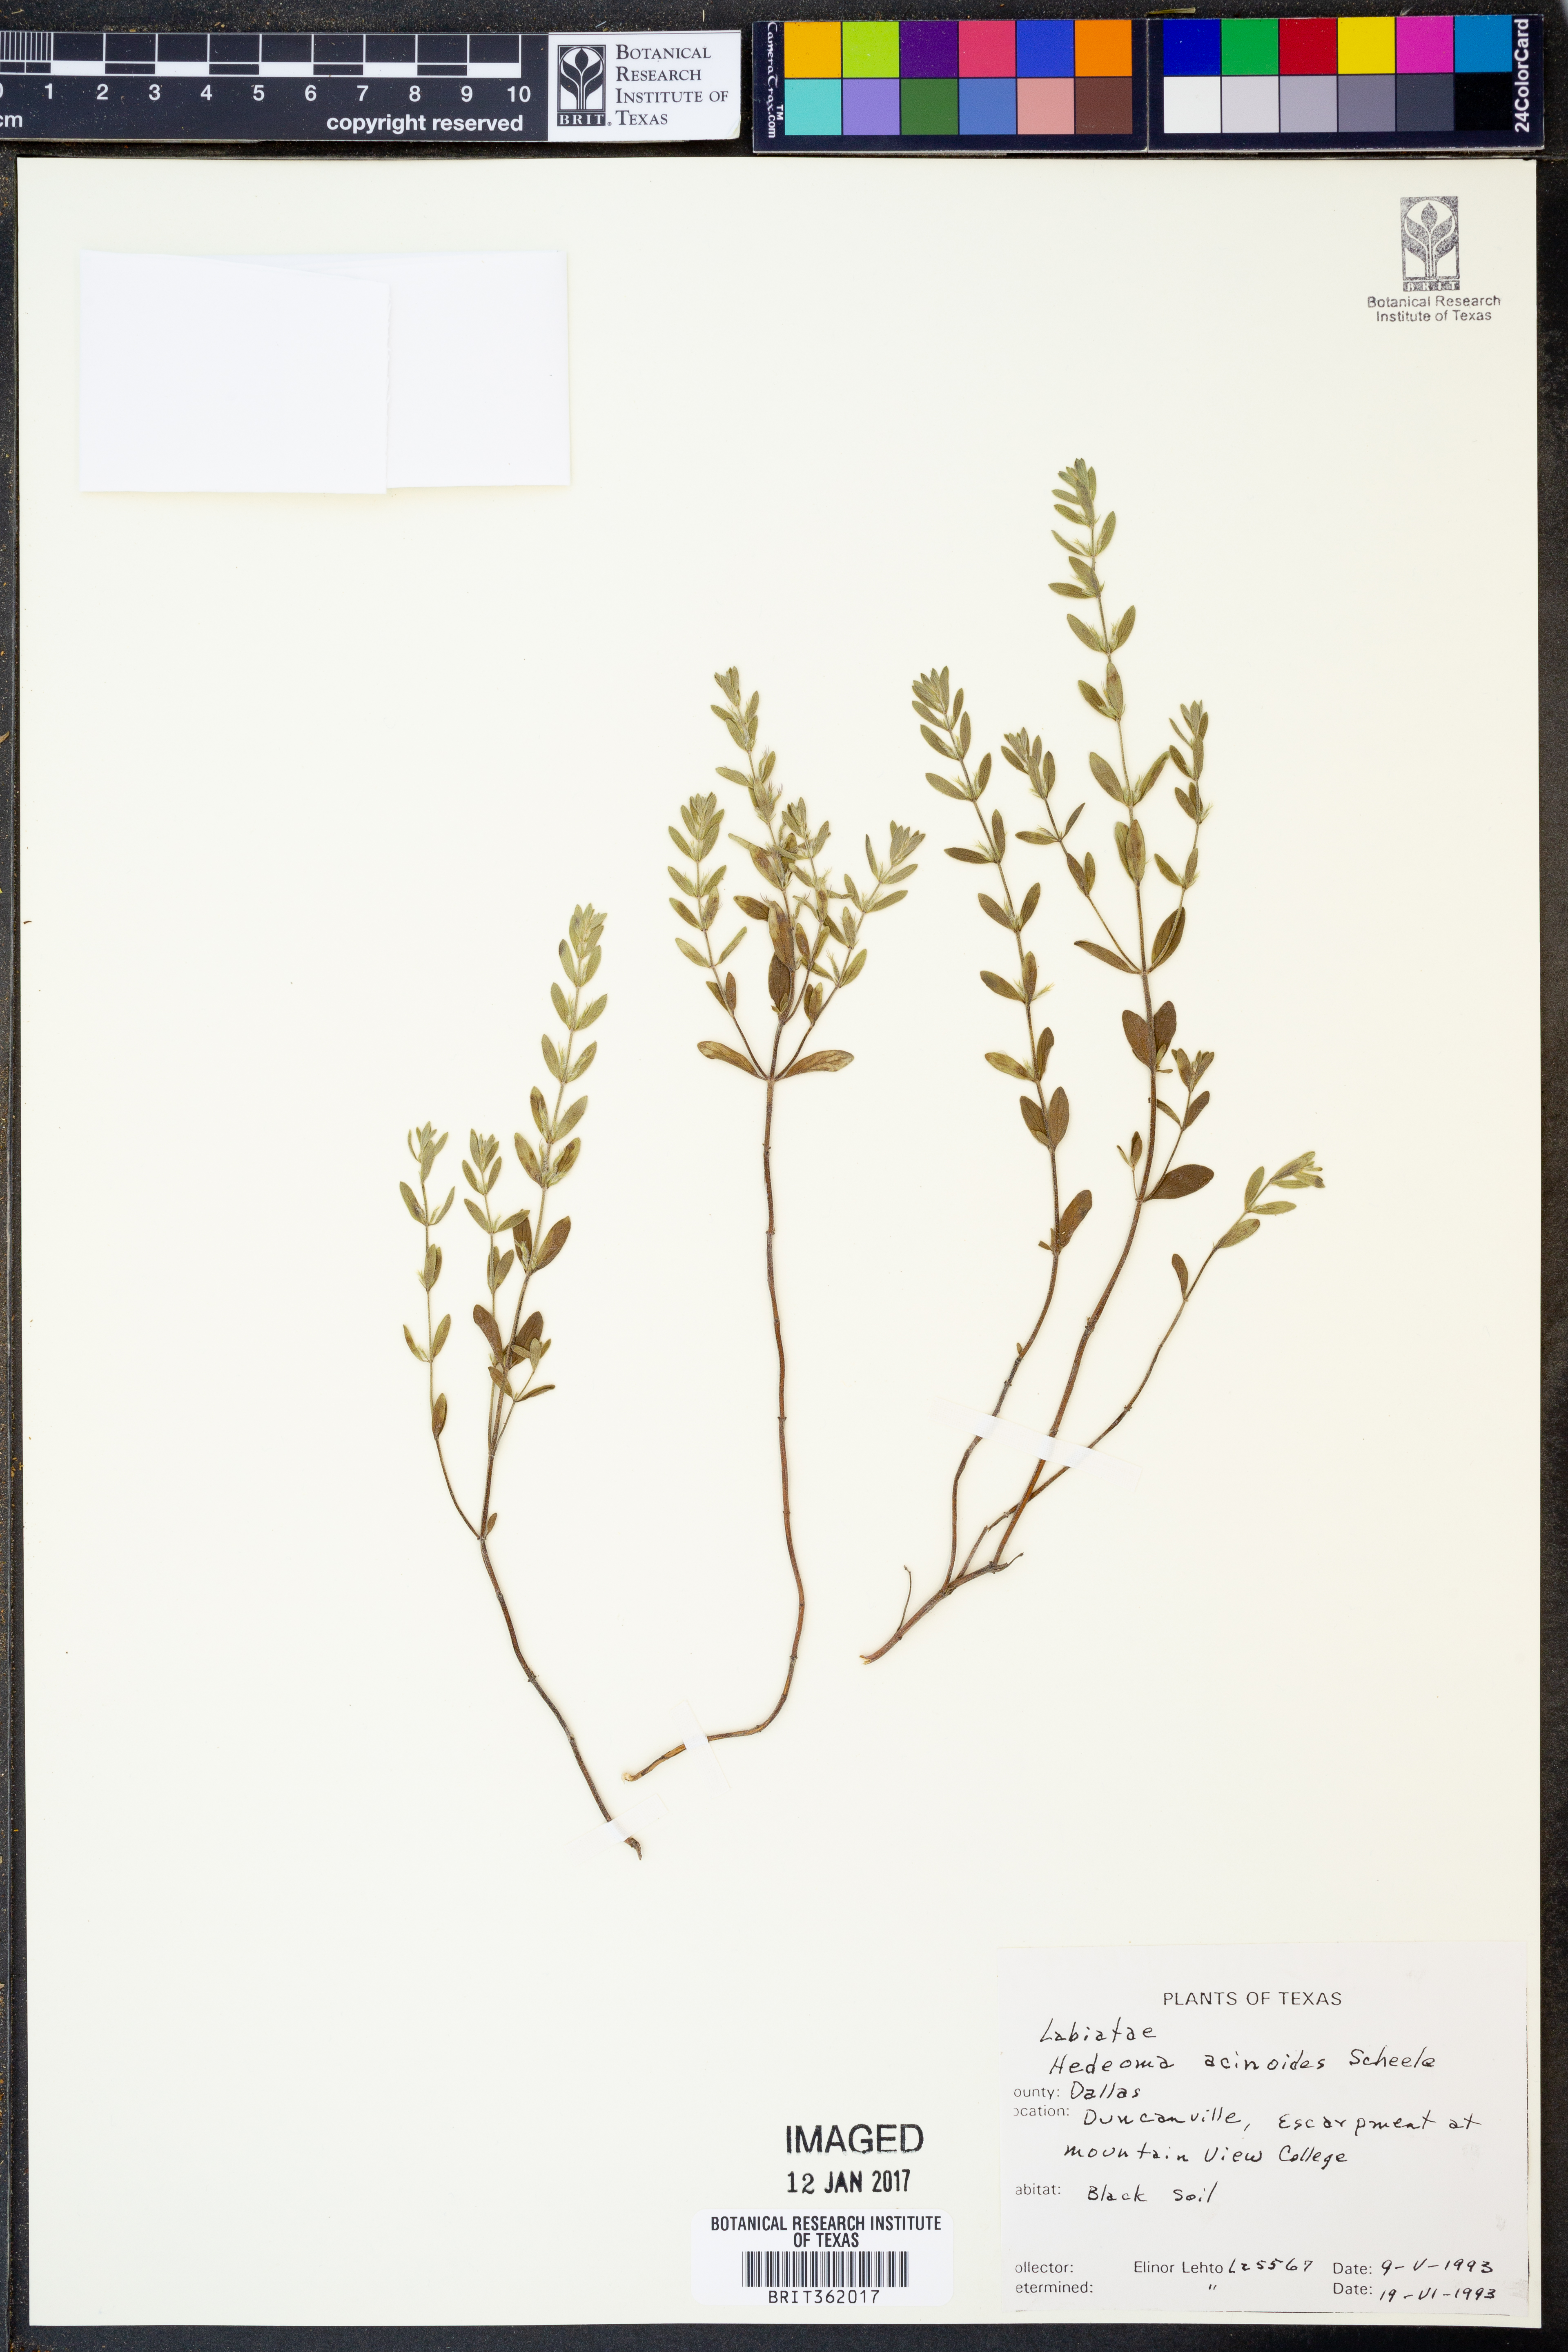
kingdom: Plantae
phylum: Tracheophyta
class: Magnoliopsida
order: Lamiales
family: Lamiaceae
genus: Hedeoma
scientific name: Hedeoma acinoides
